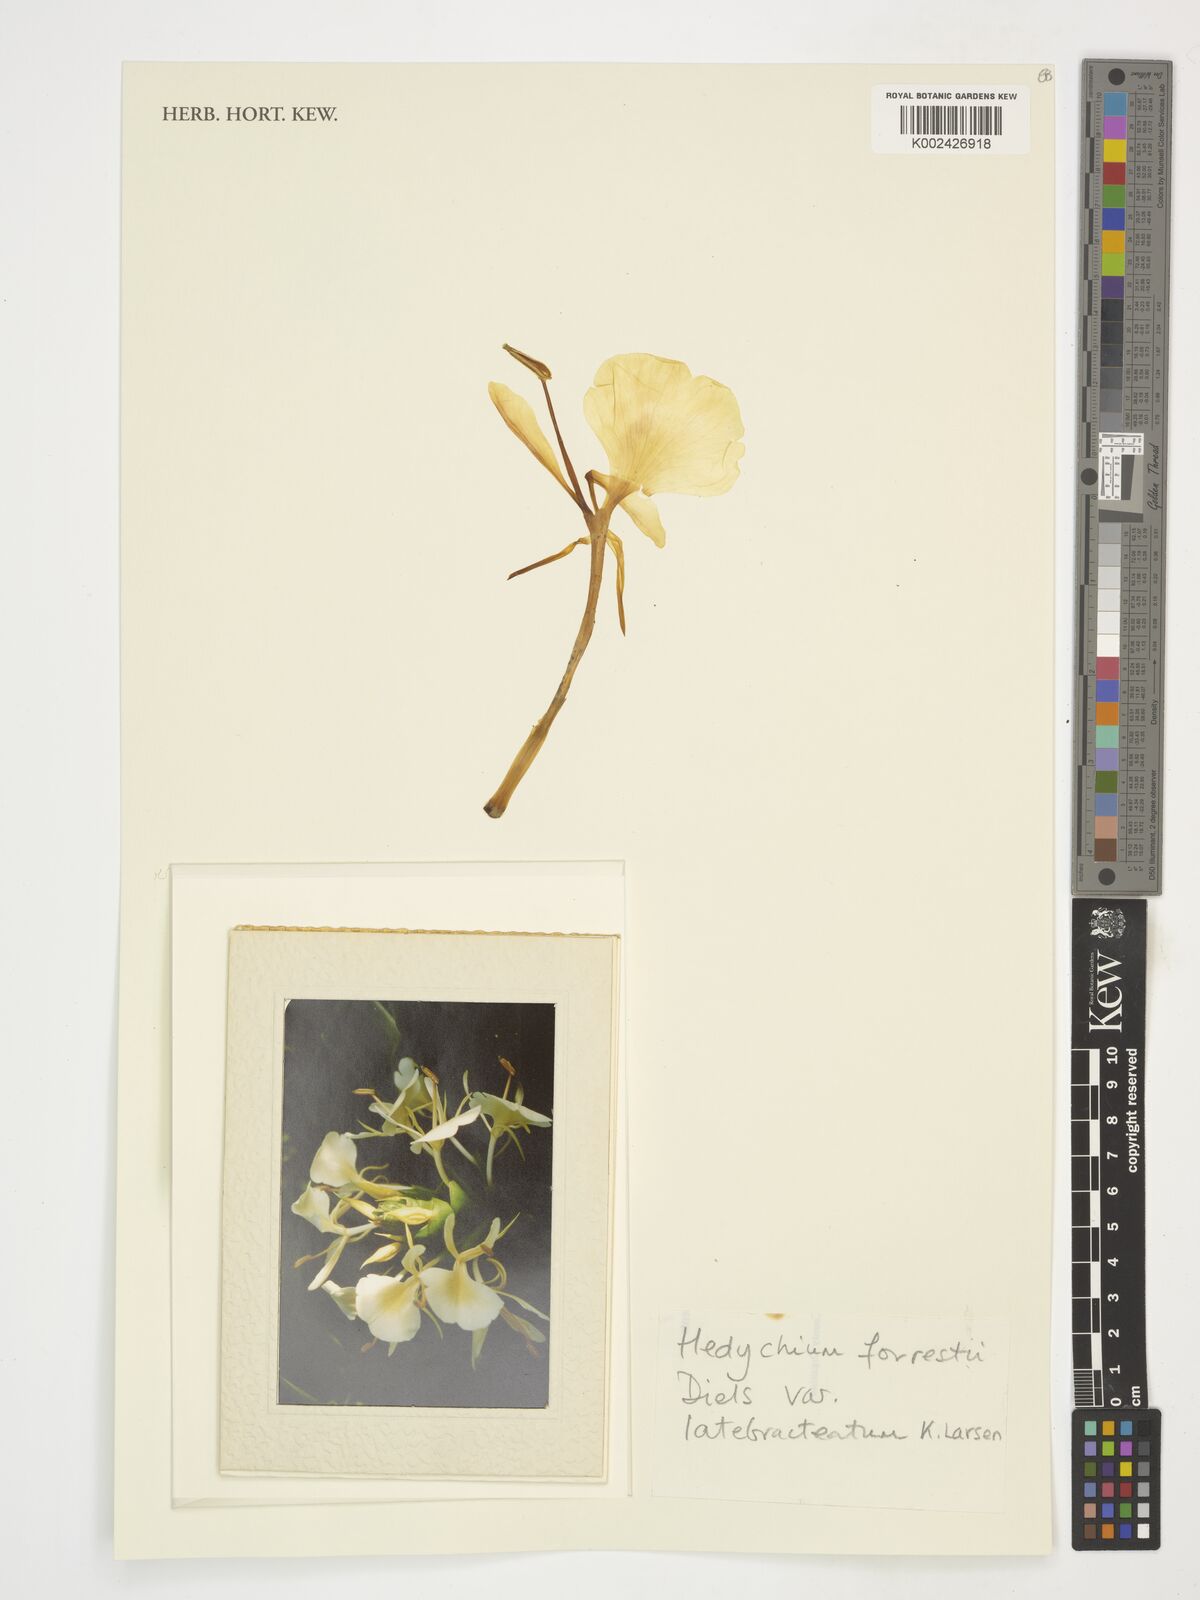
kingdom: Plantae
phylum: Tracheophyta
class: Liliopsida
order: Zingiberales
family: Zingiberaceae
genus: Hedychium
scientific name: Hedychium forrestii
